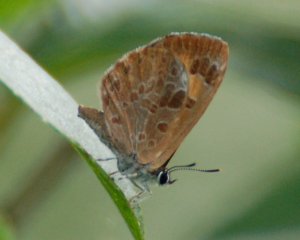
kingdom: Animalia
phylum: Arthropoda
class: Insecta
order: Lepidoptera
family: Lycaenidae
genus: Feniseca
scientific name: Feniseca tarquinius
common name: Harvester
